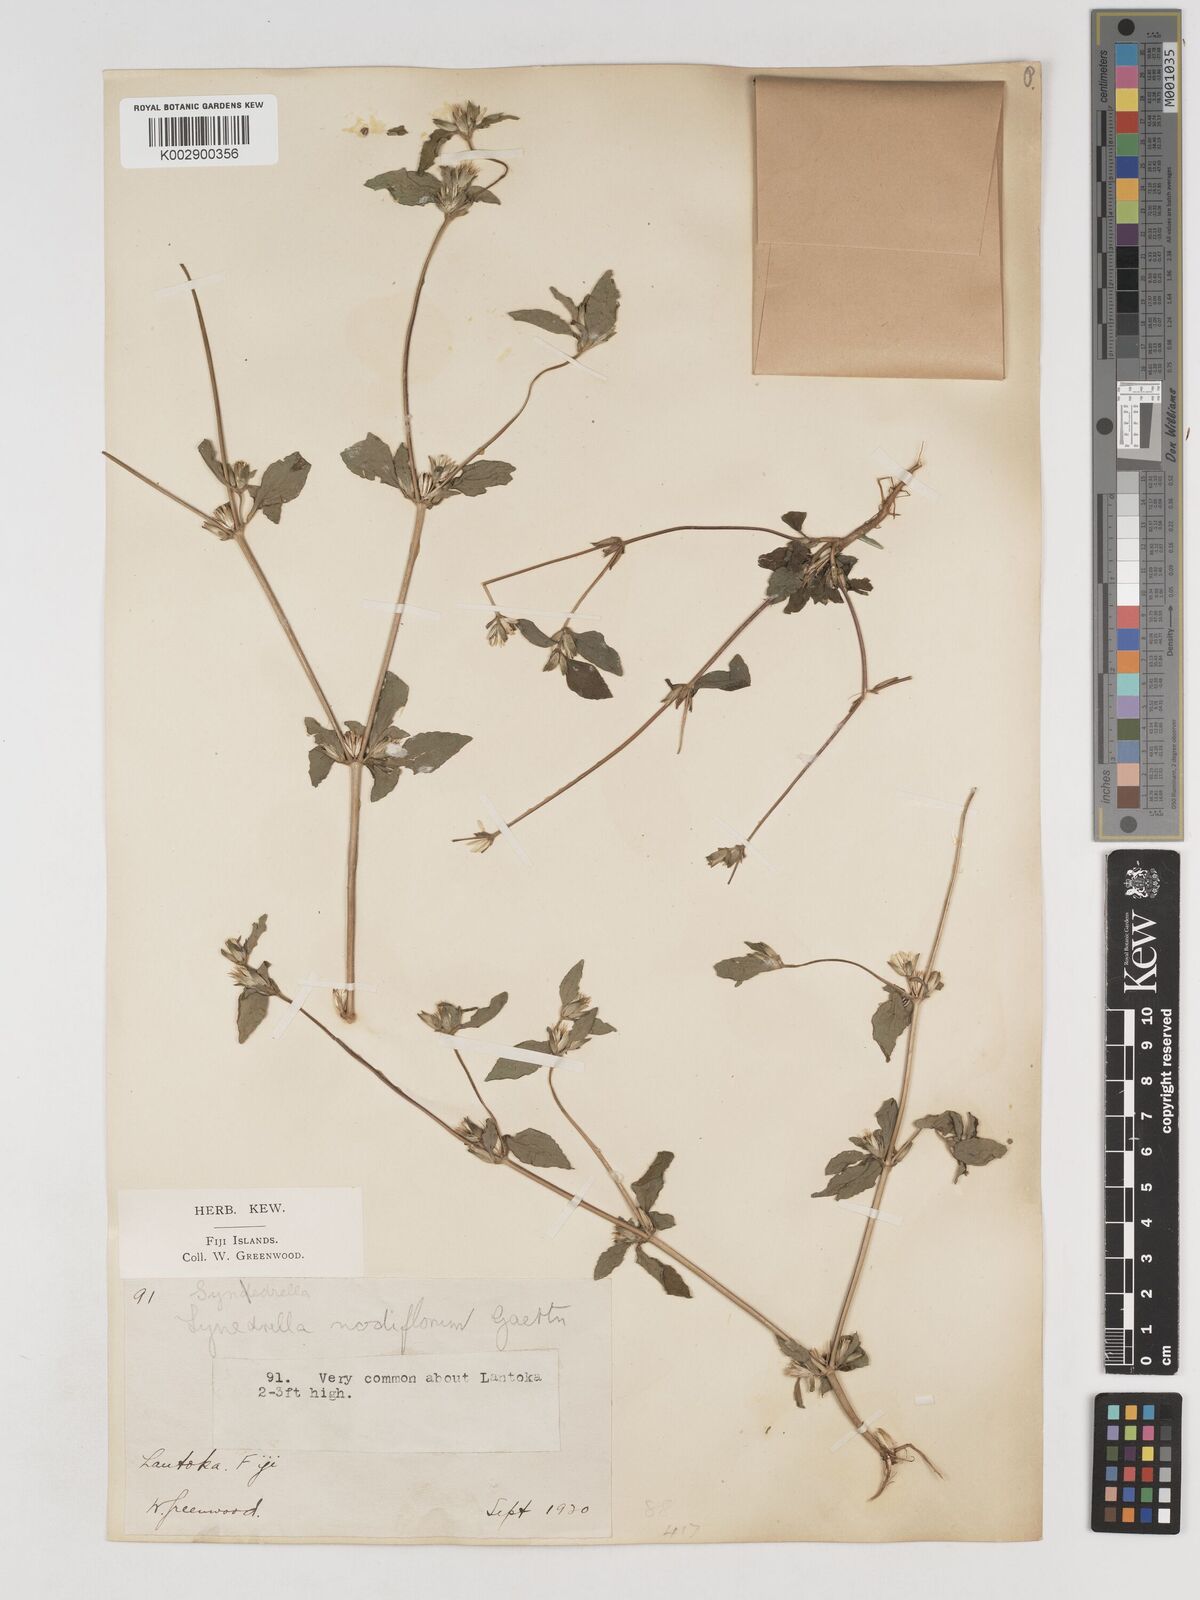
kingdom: Plantae
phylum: Tracheophyta
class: Magnoliopsida
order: Asterales
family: Asteraceae
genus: Synedrella
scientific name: Synedrella nodiflora
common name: Nodeweed
